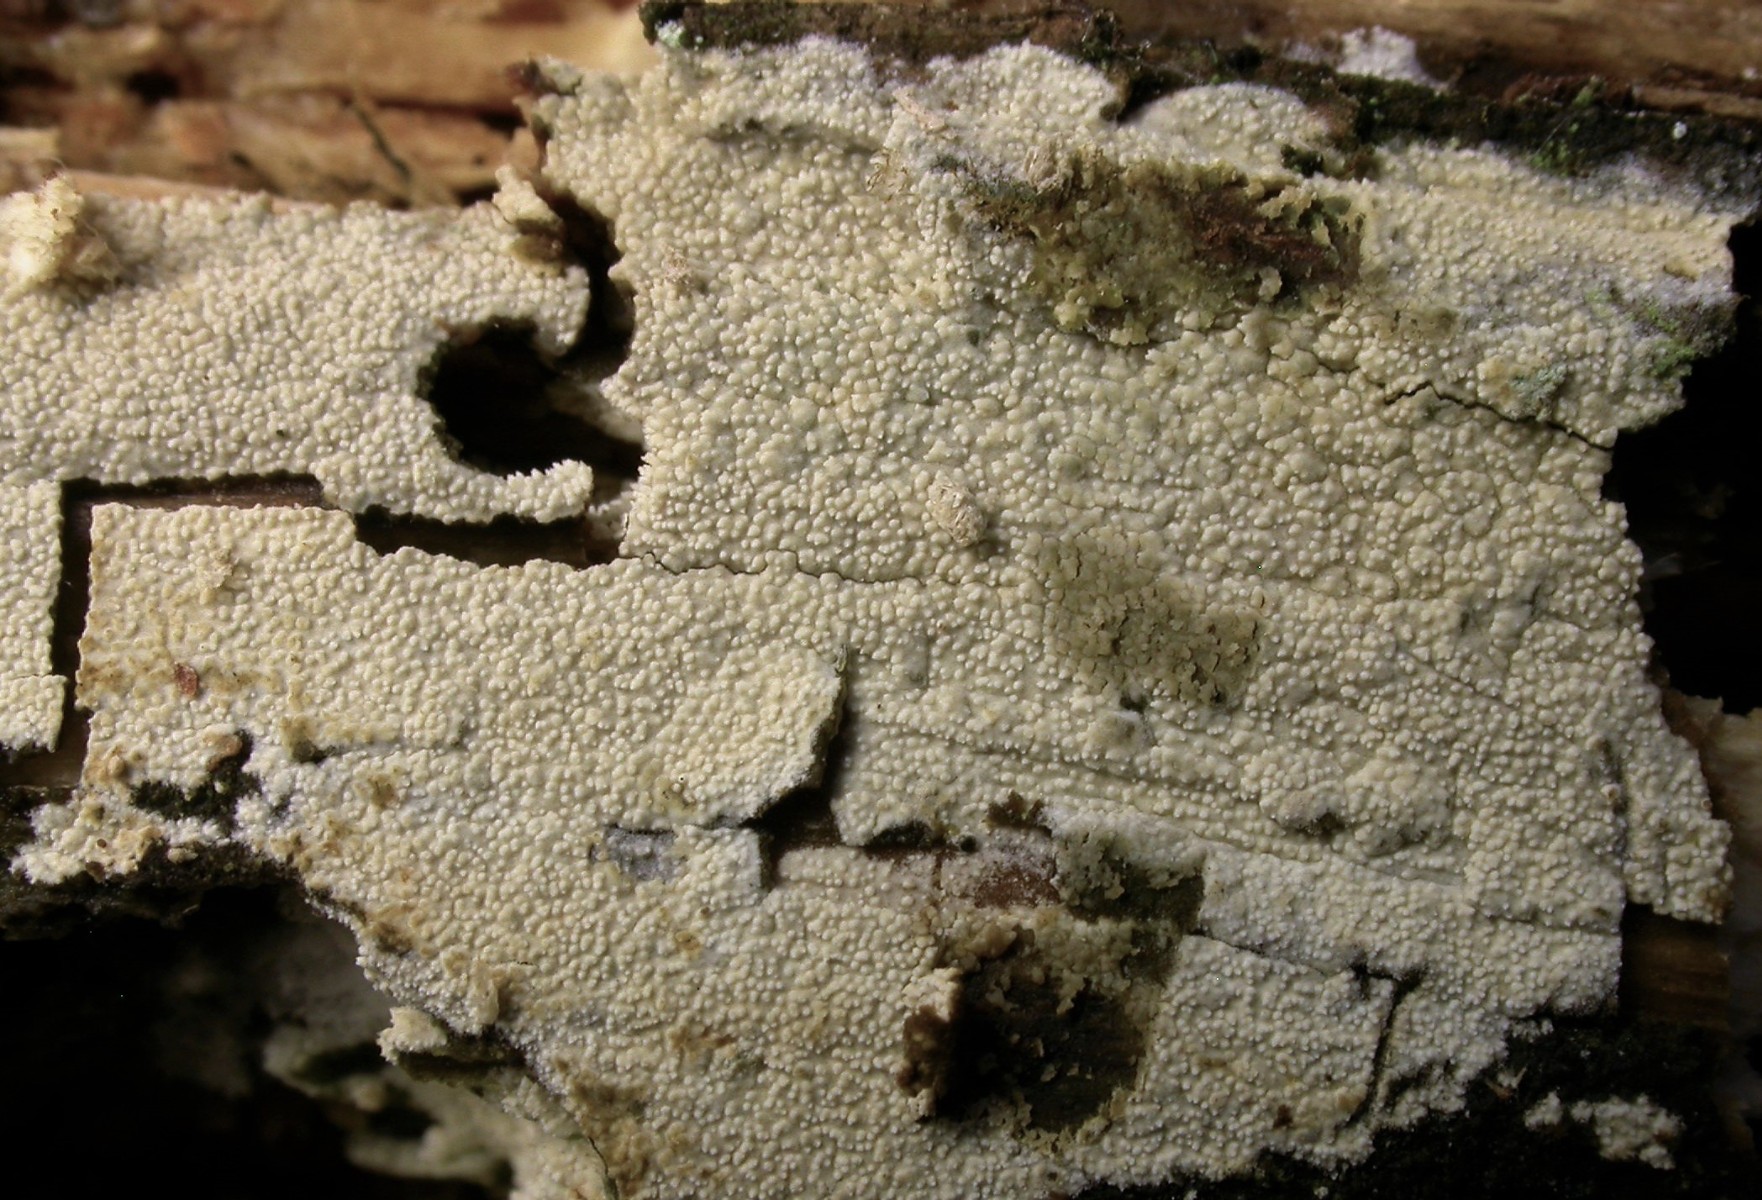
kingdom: Fungi
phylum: Basidiomycota
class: Agaricomycetes
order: Hymenochaetales
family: Schizoporaceae
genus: Xylodon
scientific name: Xylodon brevisetus
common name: tætvortet tandsvamp
